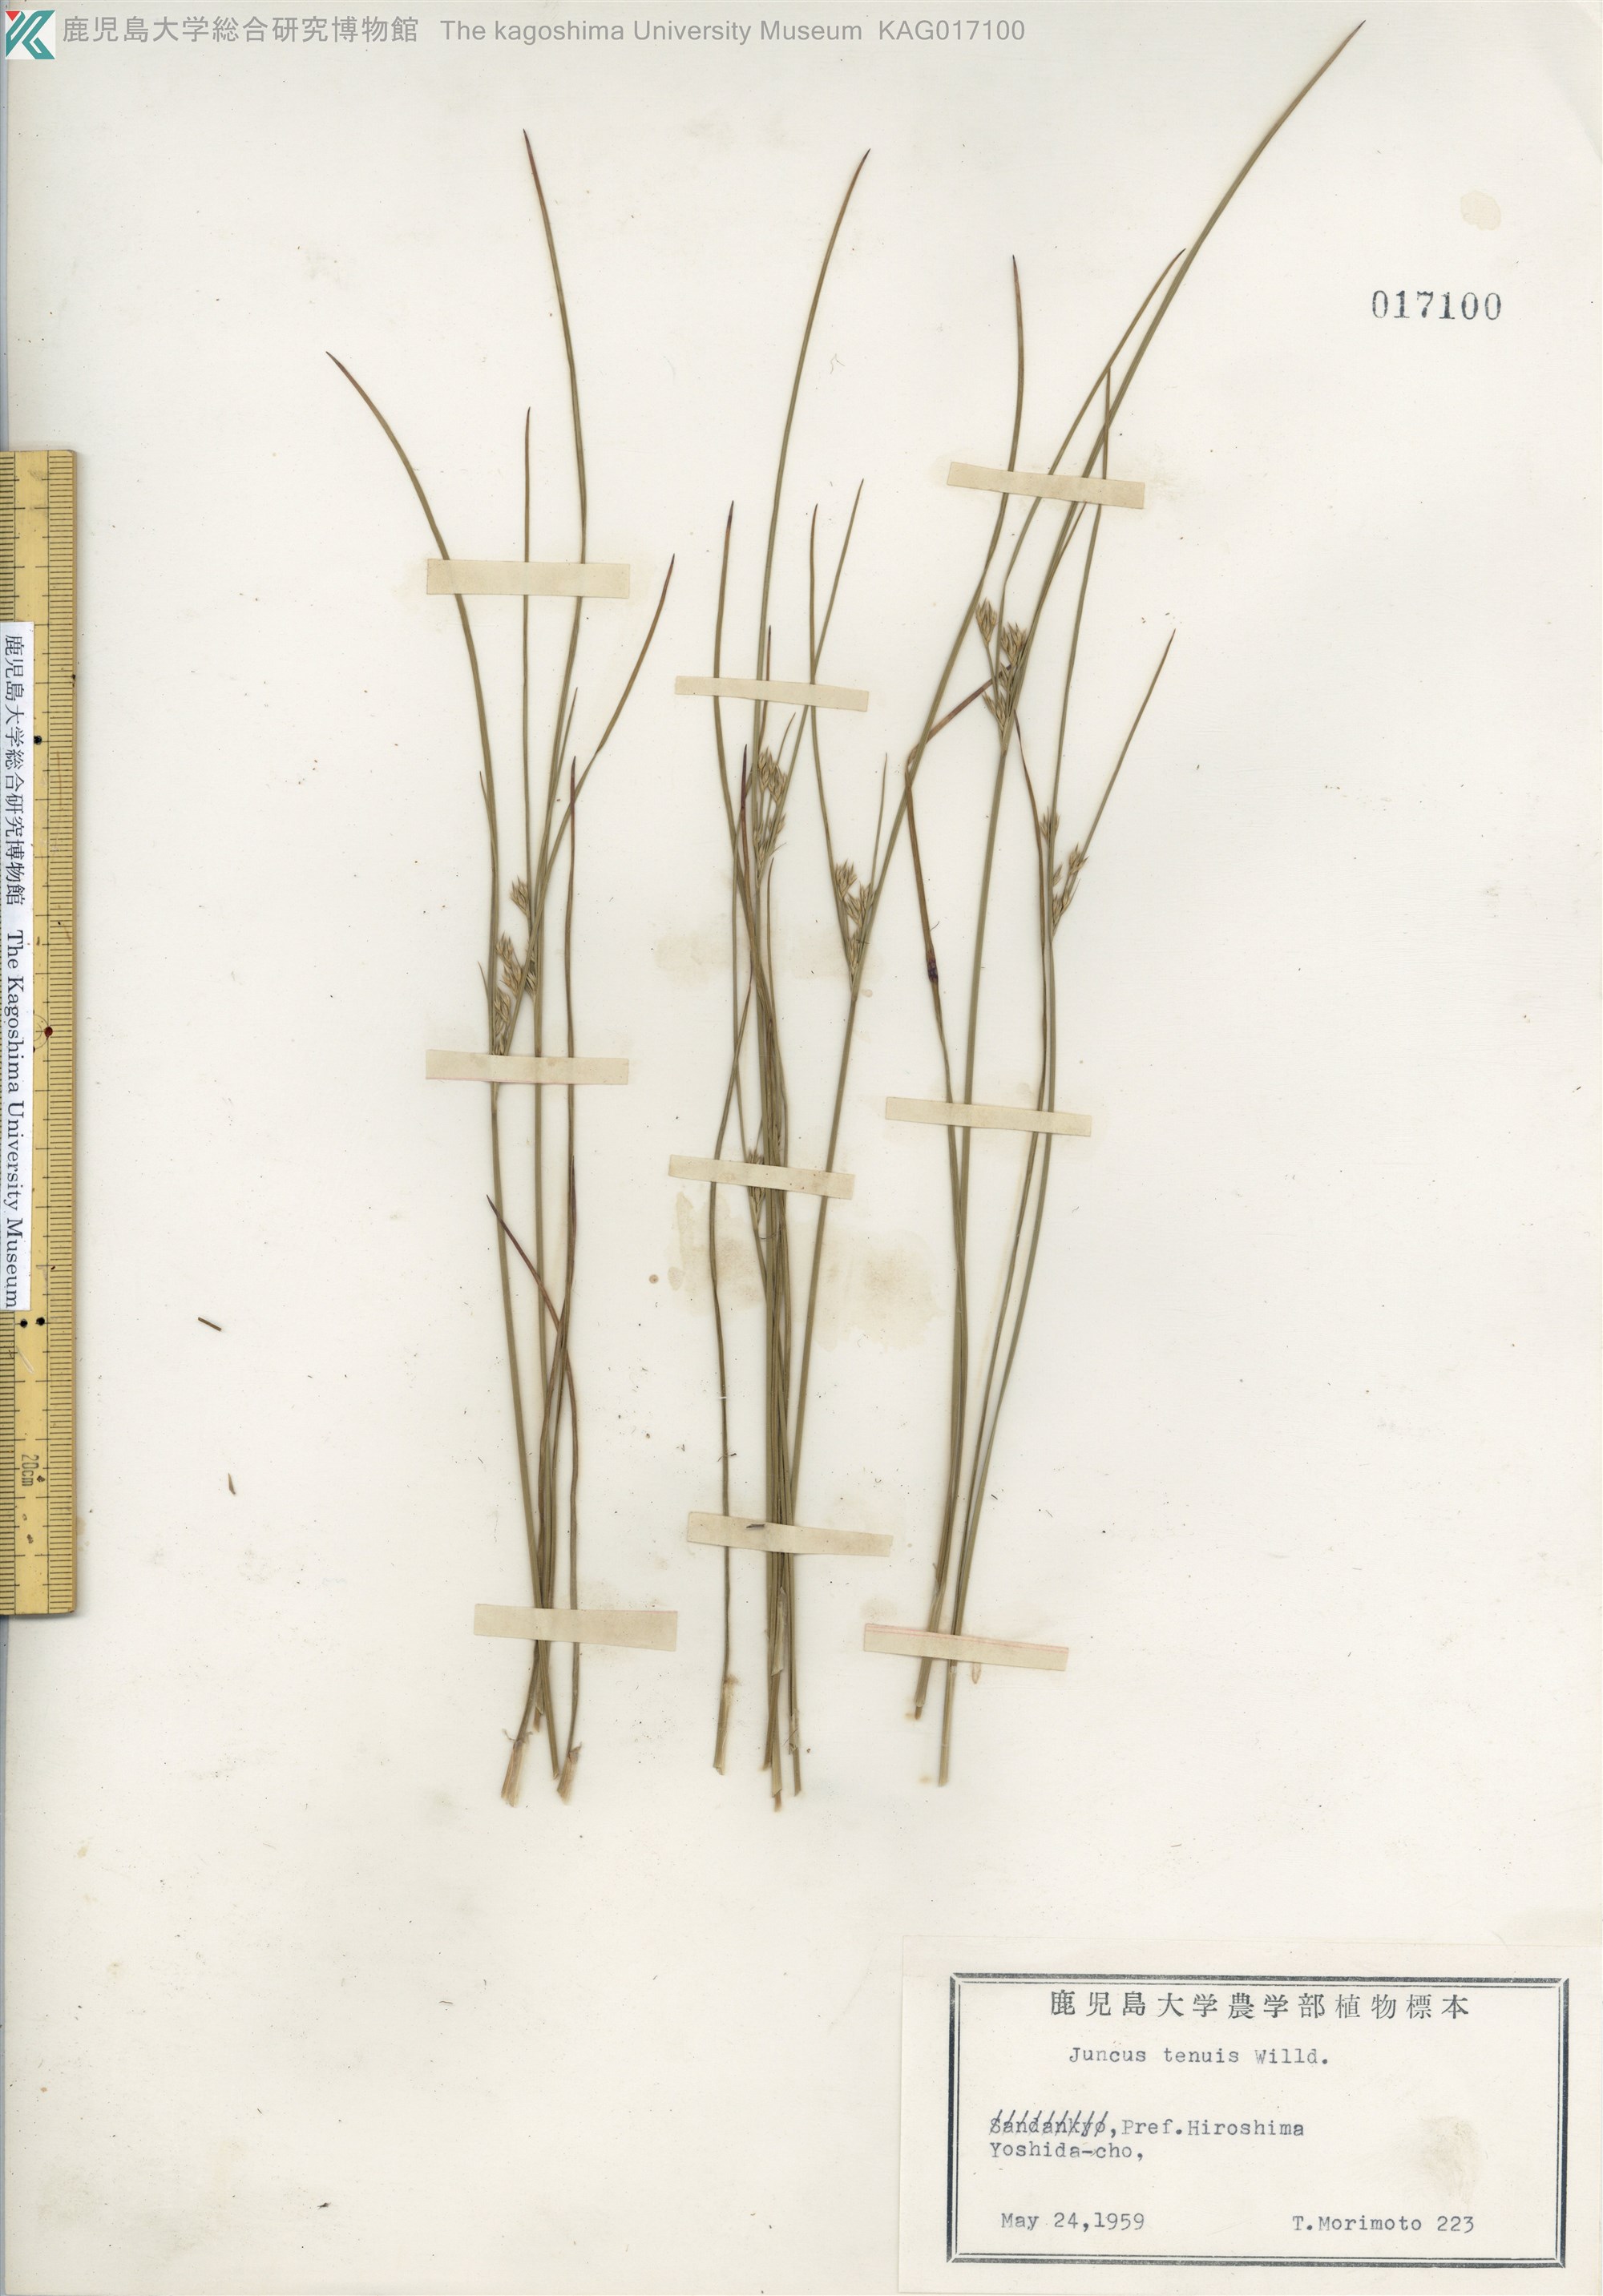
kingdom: Plantae
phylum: Tracheophyta
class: Liliopsida
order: Poales
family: Juncaceae
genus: Juncus
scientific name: Juncus tenuis
